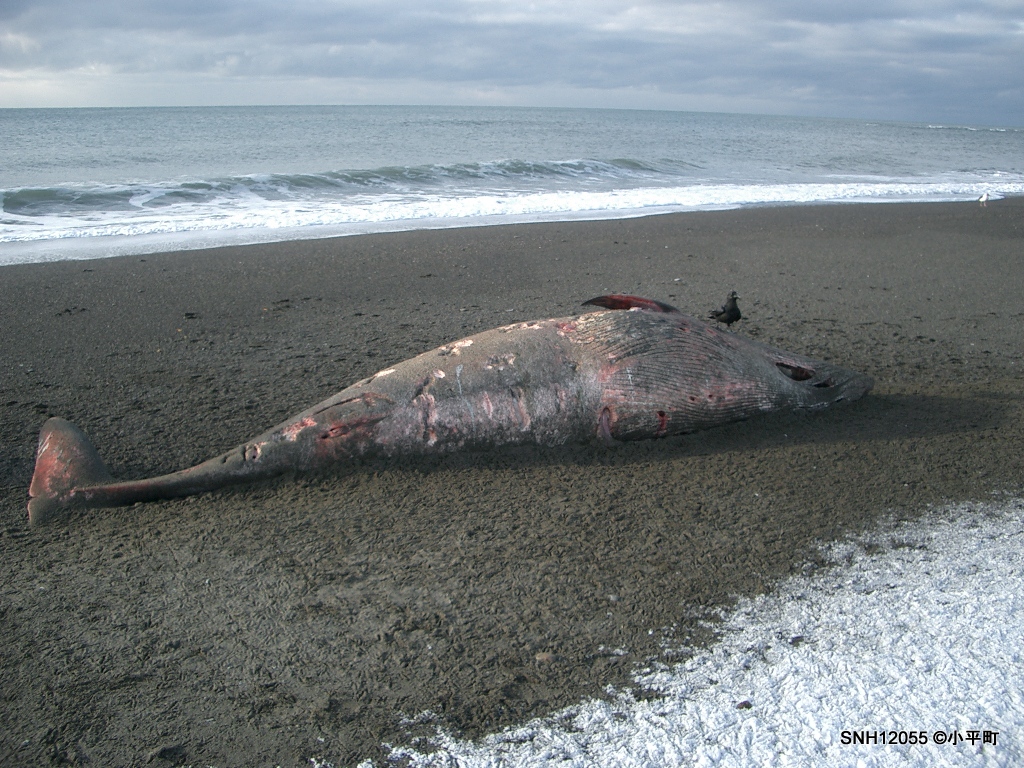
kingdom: Animalia
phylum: Chordata
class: Mammalia
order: Cetacea
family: Balaenopteridae
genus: Balaenoptera
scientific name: Balaenoptera acutorostrata
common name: Minke whale
